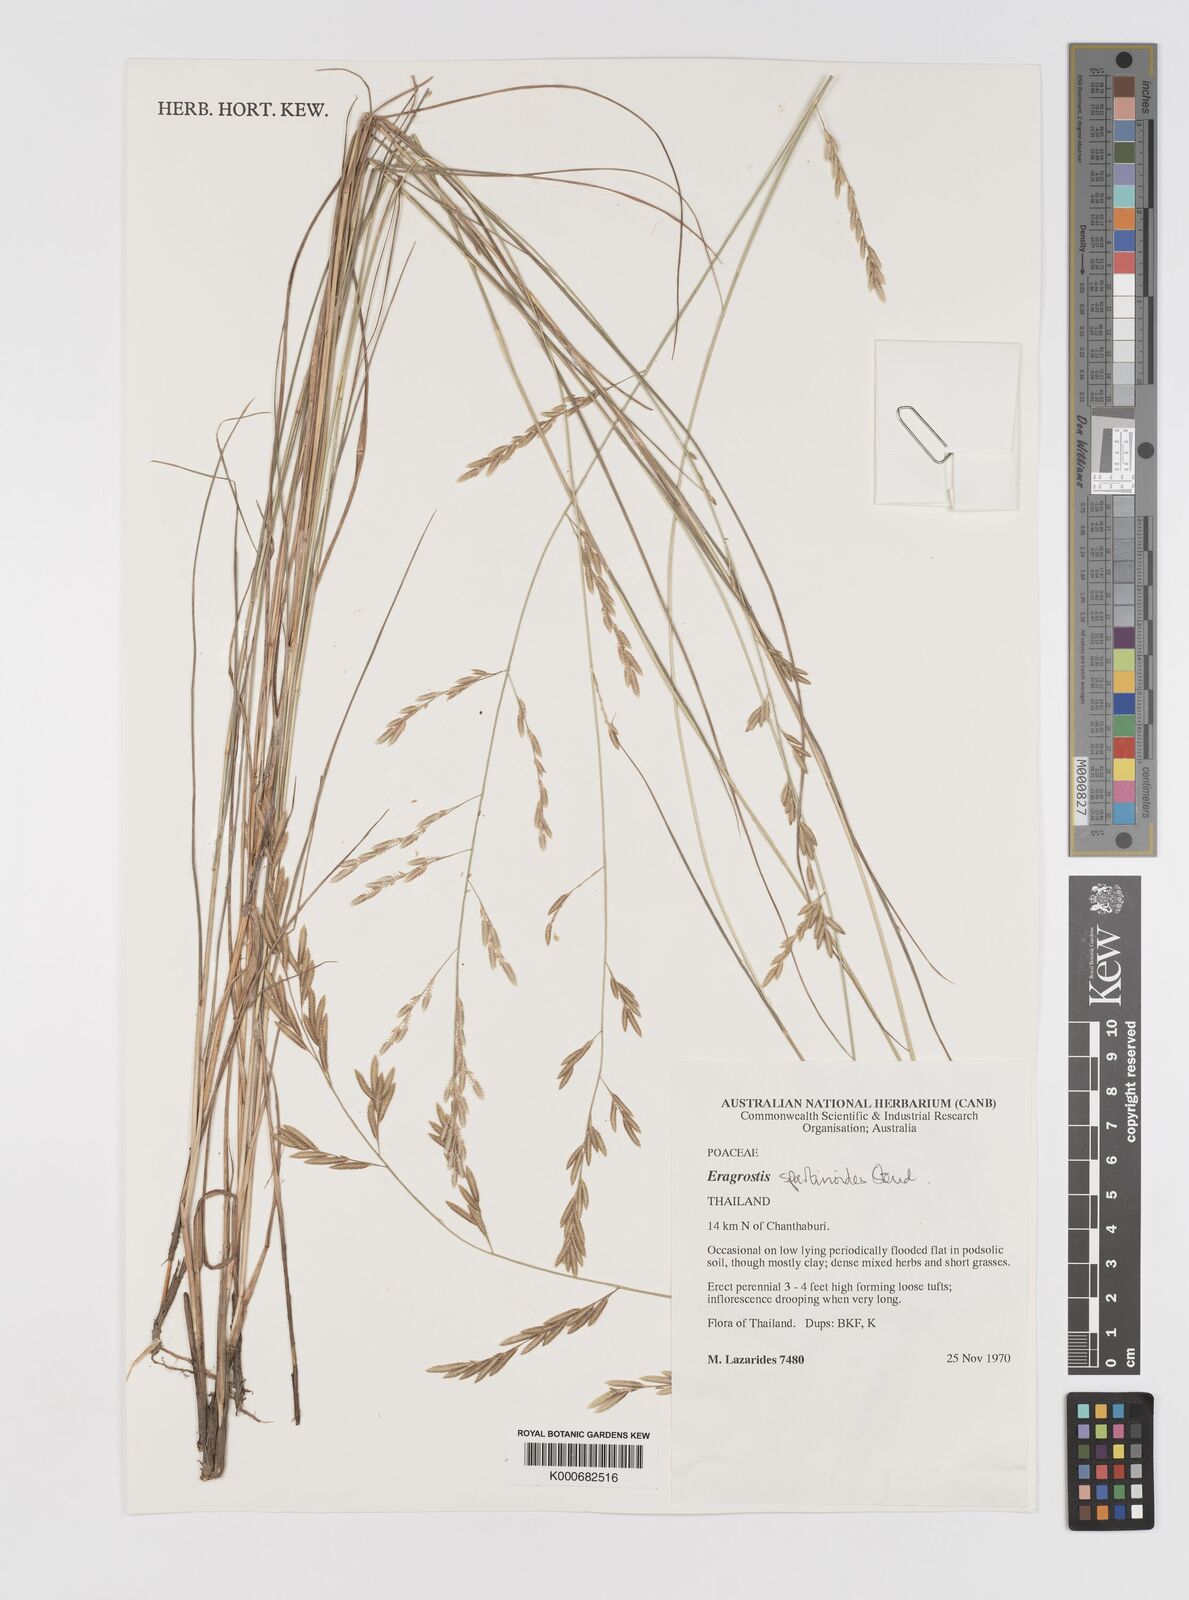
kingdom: Plantae
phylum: Tracheophyta
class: Liliopsida
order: Poales
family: Poaceae
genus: Eragrostis
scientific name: Eragrostis brownii
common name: Lovegrass
